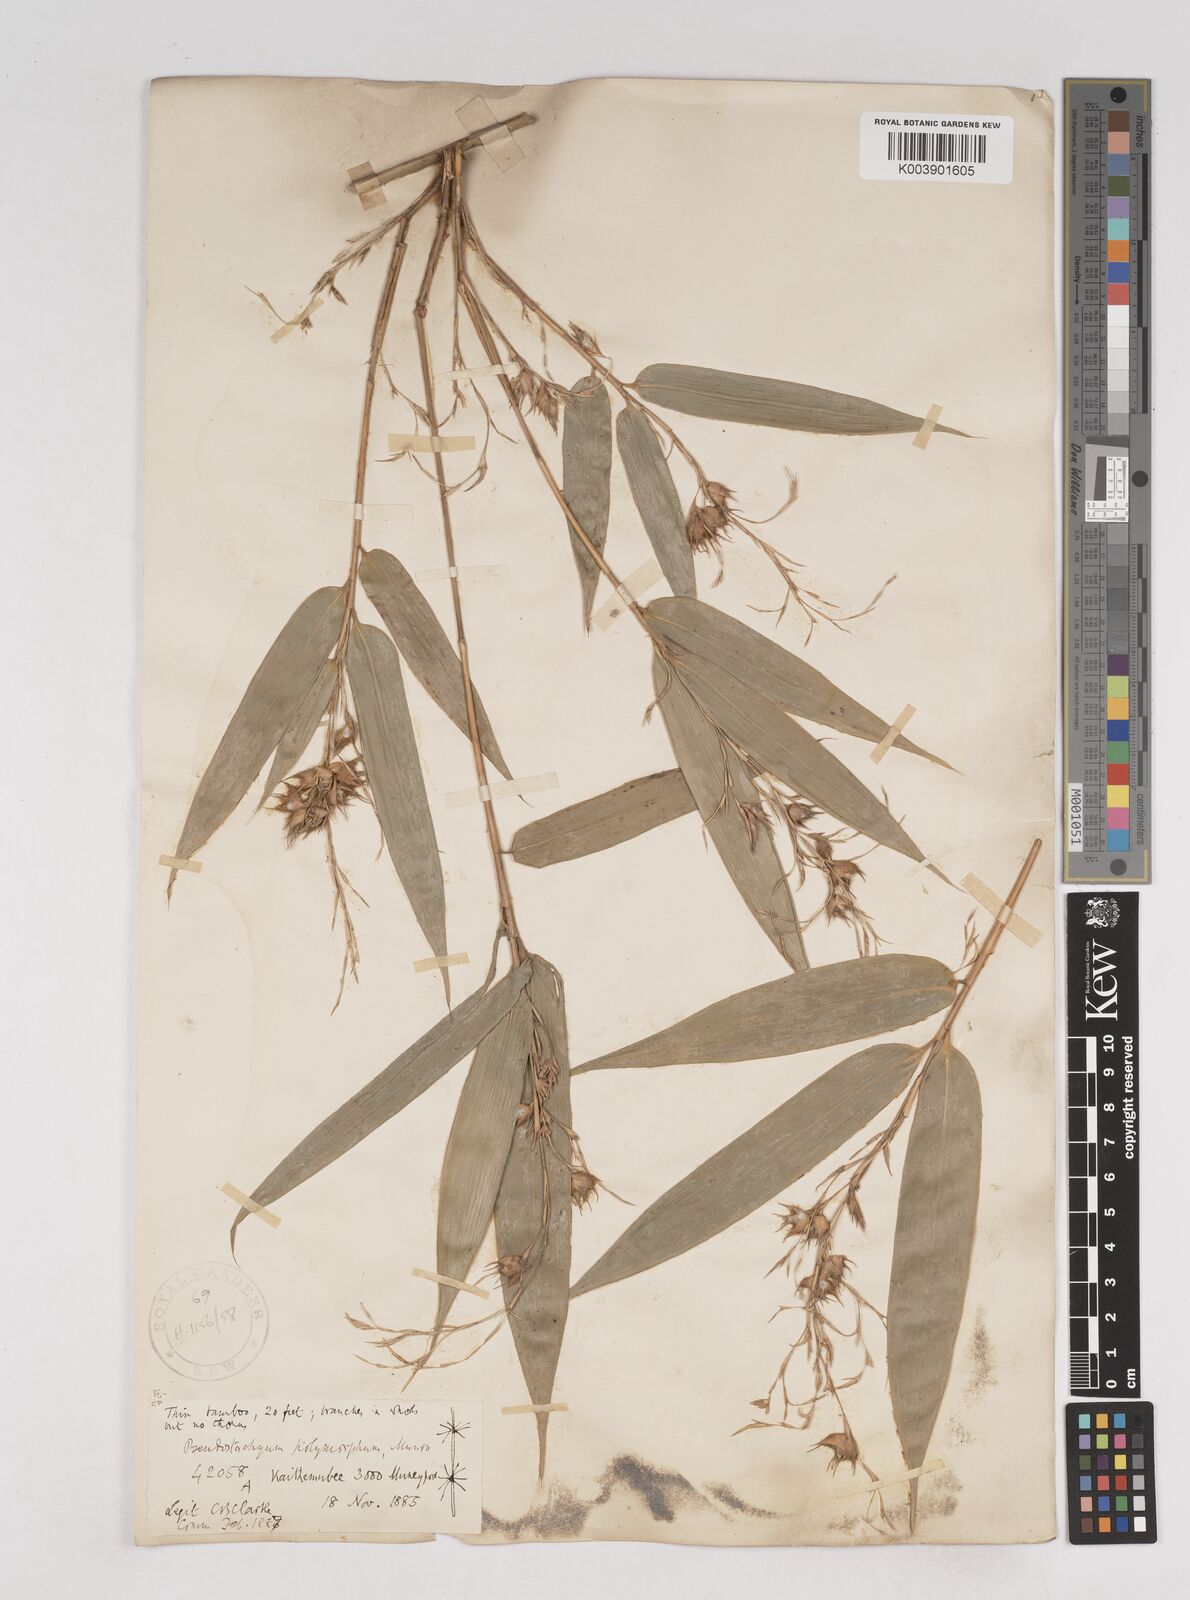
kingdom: Plantae
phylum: Tracheophyta
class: Liliopsida
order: Poales
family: Poaceae
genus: Pseudostachyum
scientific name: Pseudostachyum polymorphum
